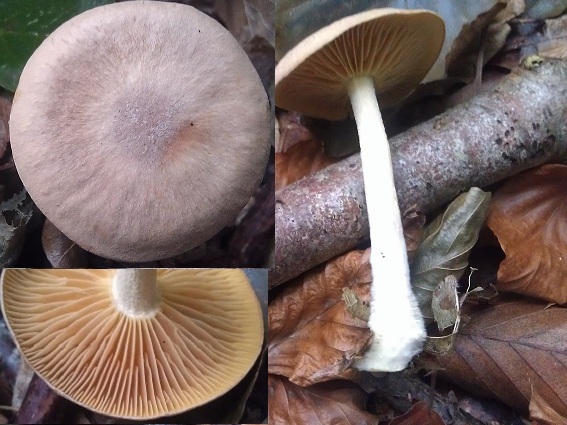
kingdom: Fungi
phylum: Basidiomycota
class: Agaricomycetes
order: Agaricales
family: Omphalotaceae
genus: Collybiopsis
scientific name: Collybiopsis peronata
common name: bestøvlet fladhat
